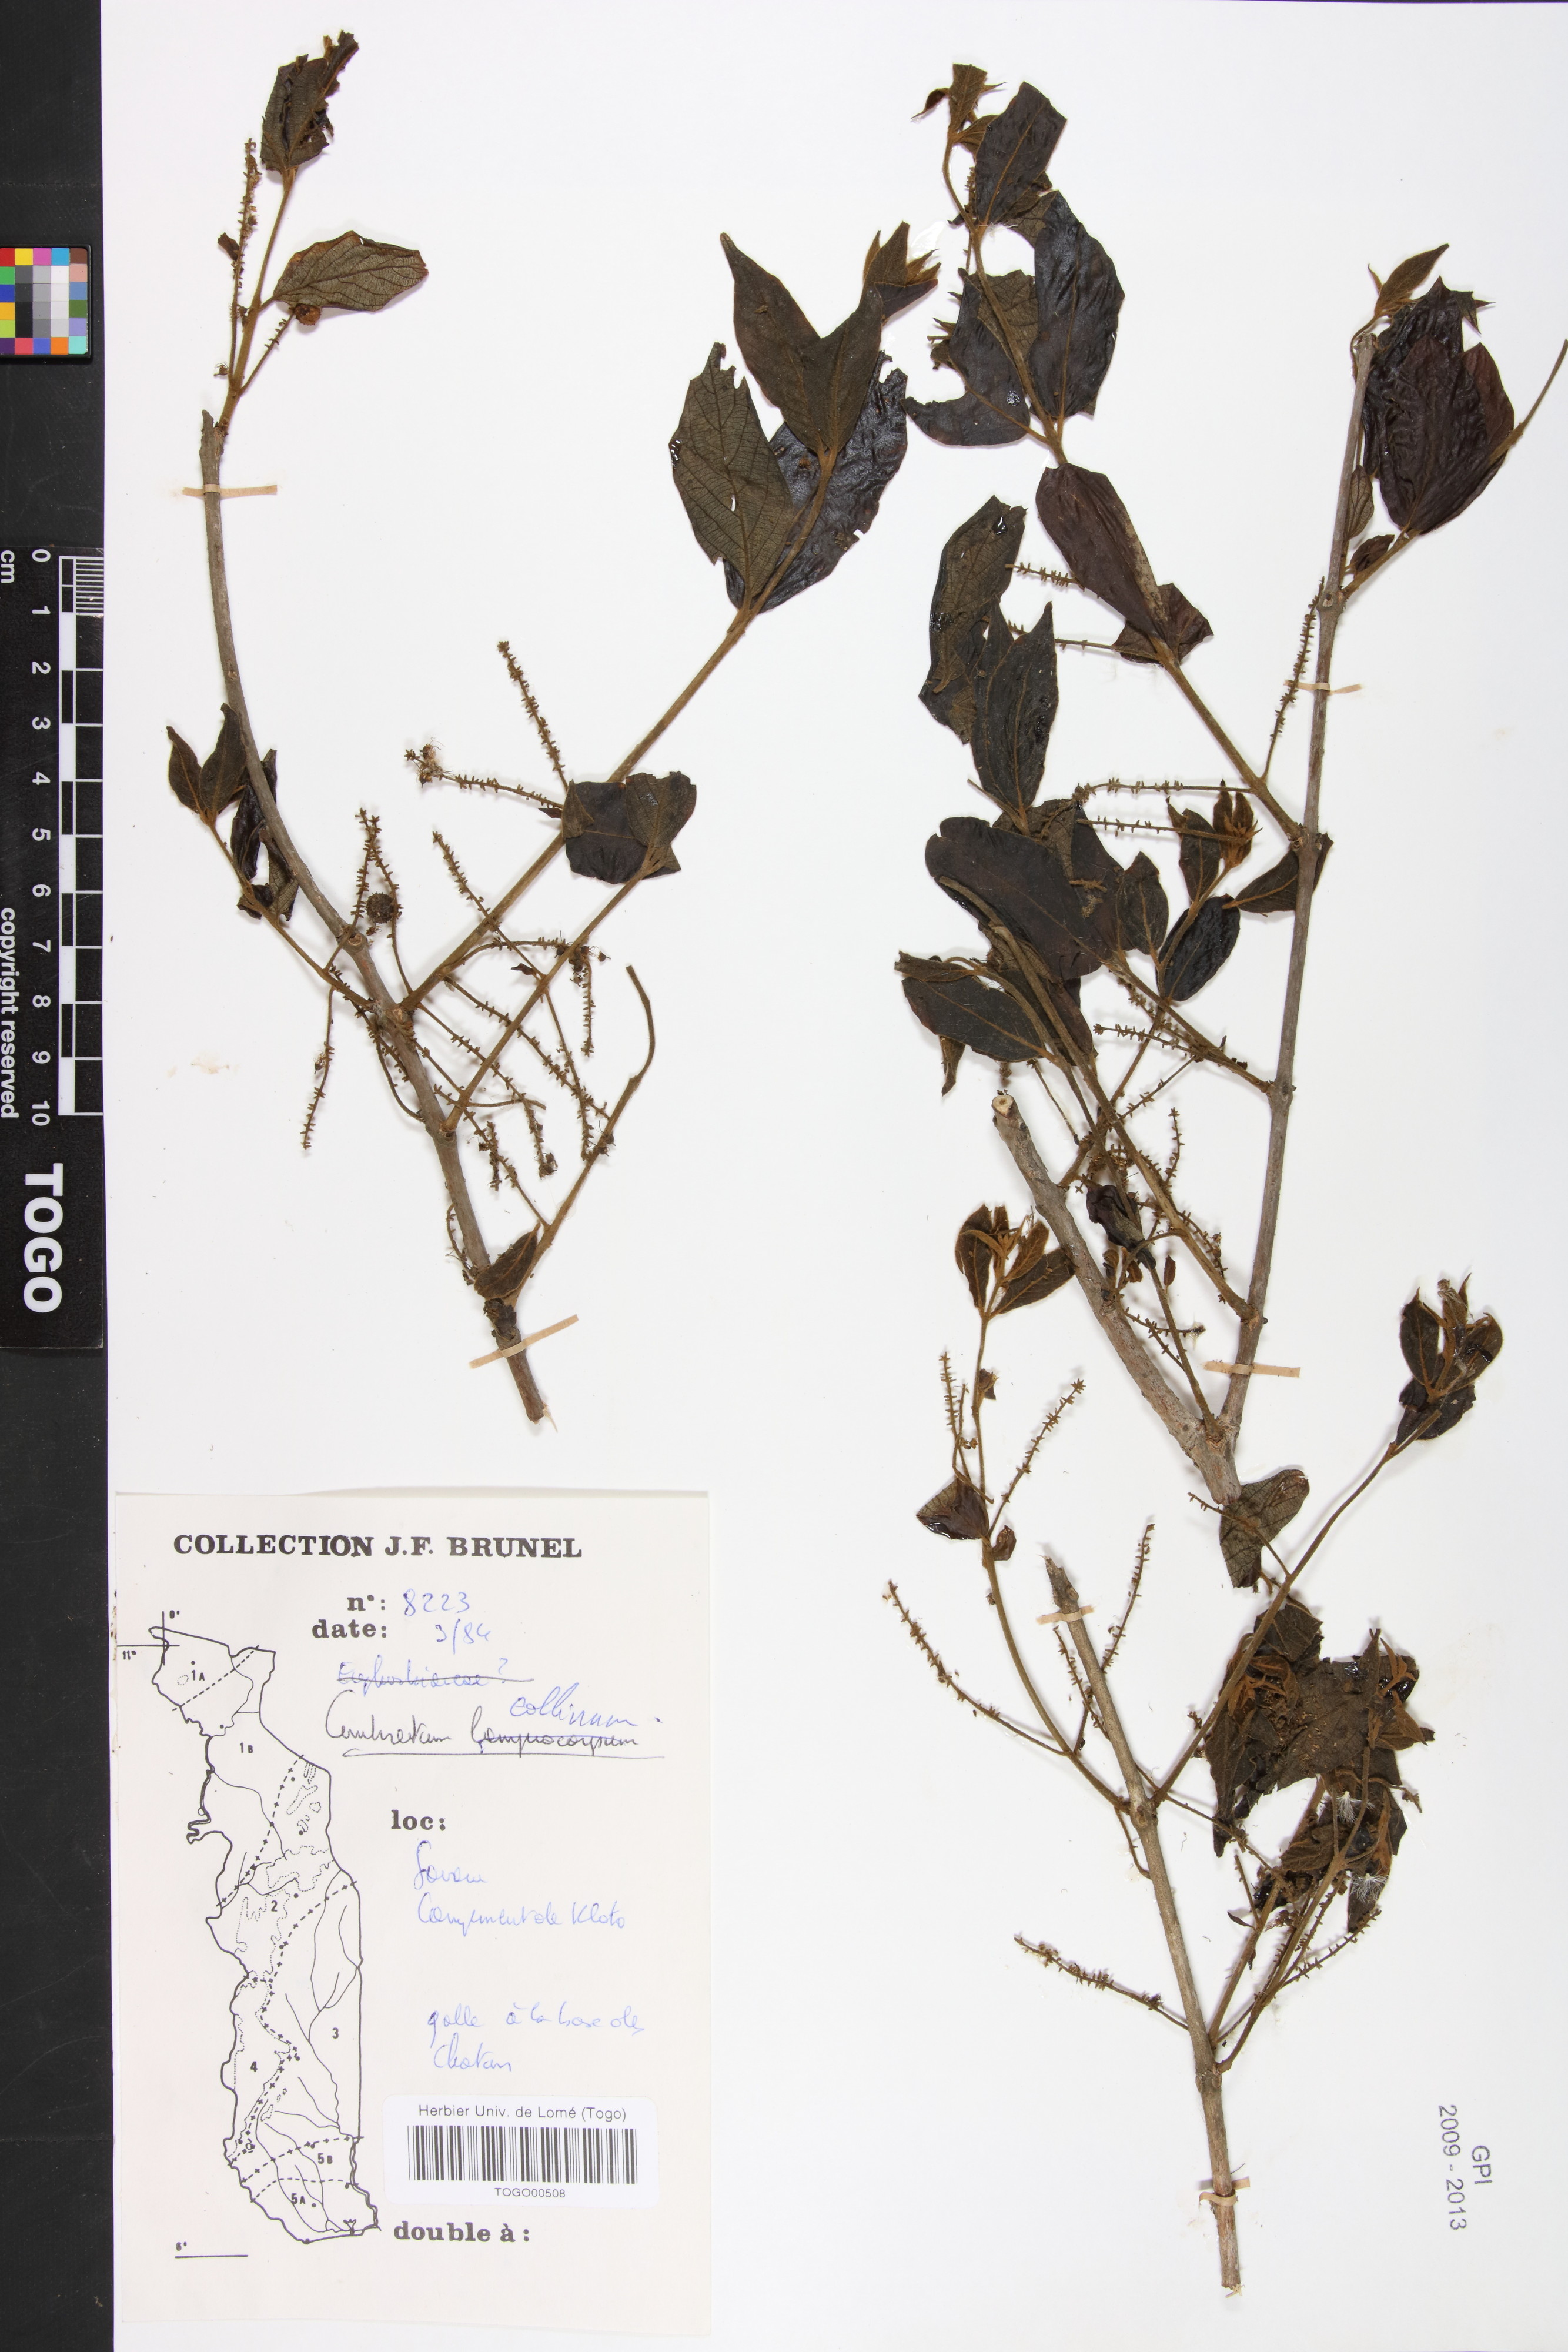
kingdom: Plantae
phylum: Tracheophyta
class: Magnoliopsida
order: Myrtales
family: Combretaceae
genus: Combretum
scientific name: Combretum collinum
